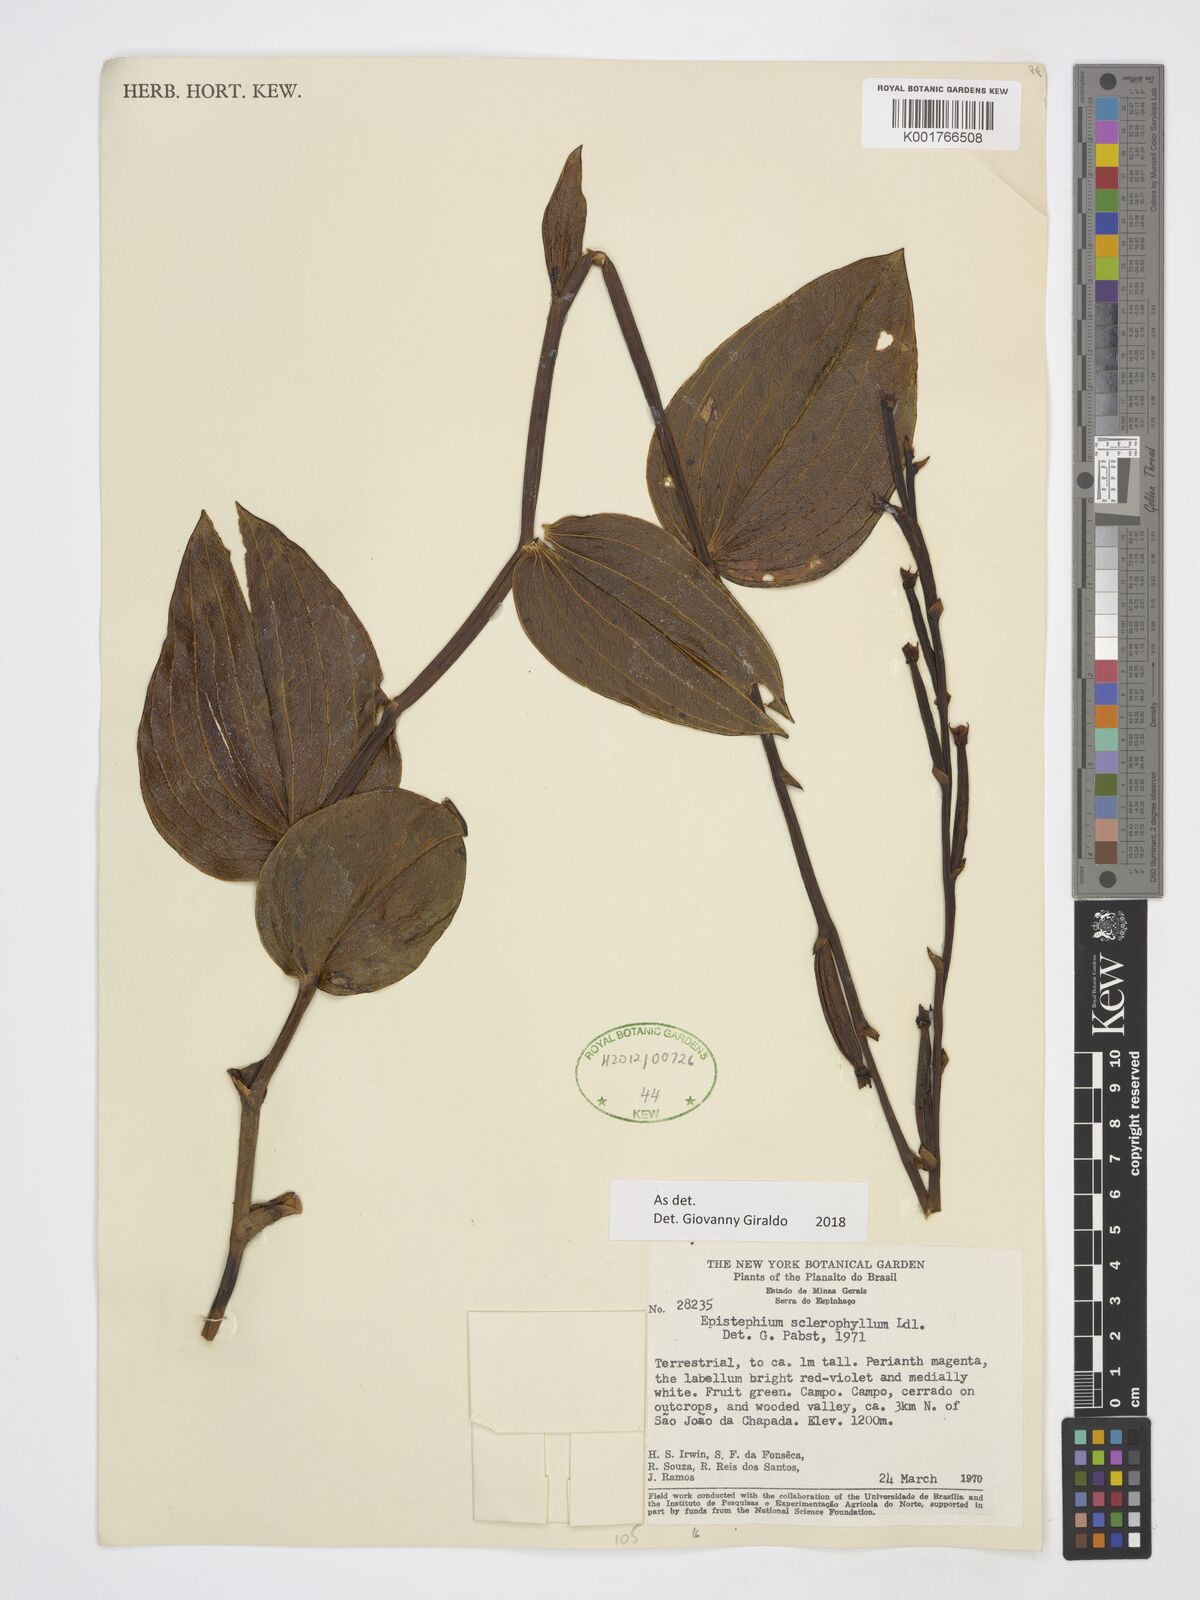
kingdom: Plantae
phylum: Tracheophyta
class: Liliopsida
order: Asparagales
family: Orchidaceae
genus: Epistephium
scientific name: Epistephium sclerophyllum
